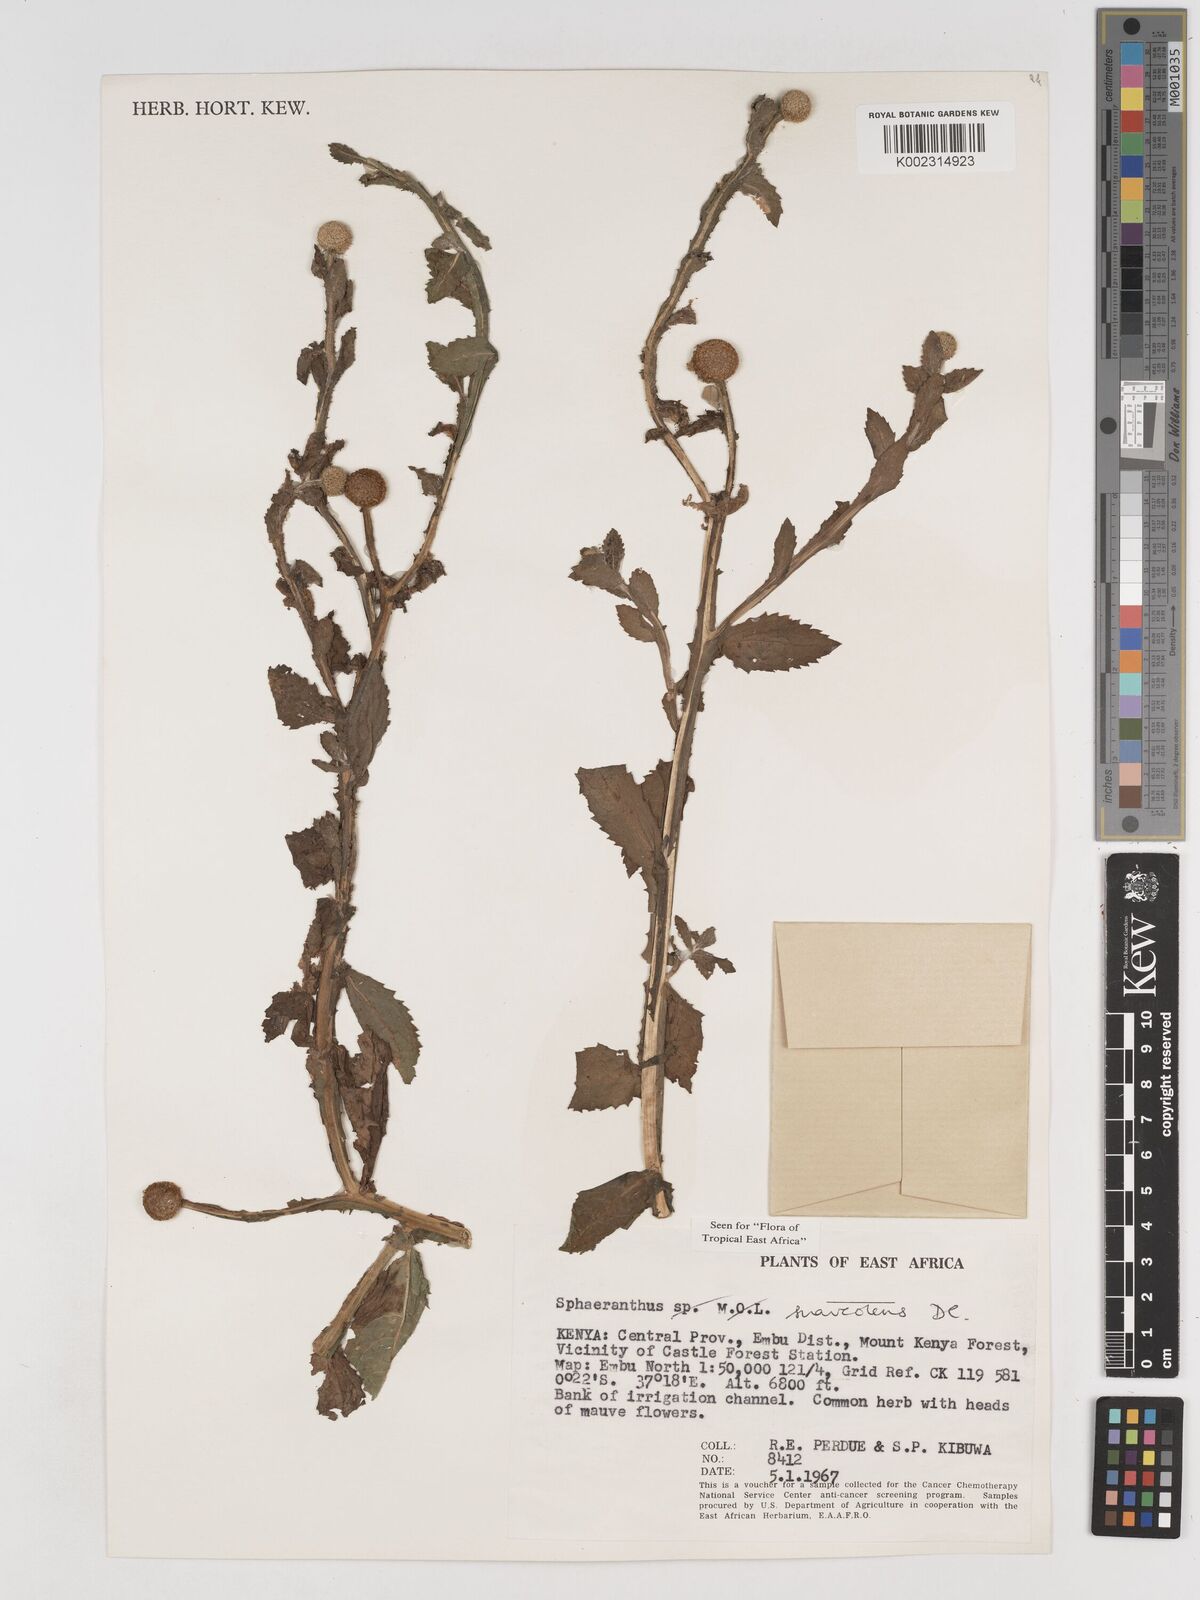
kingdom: Plantae
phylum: Tracheophyta
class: Magnoliopsida
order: Asterales
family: Asteraceae
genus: Sphaeranthus
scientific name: Sphaeranthus suaveolens
